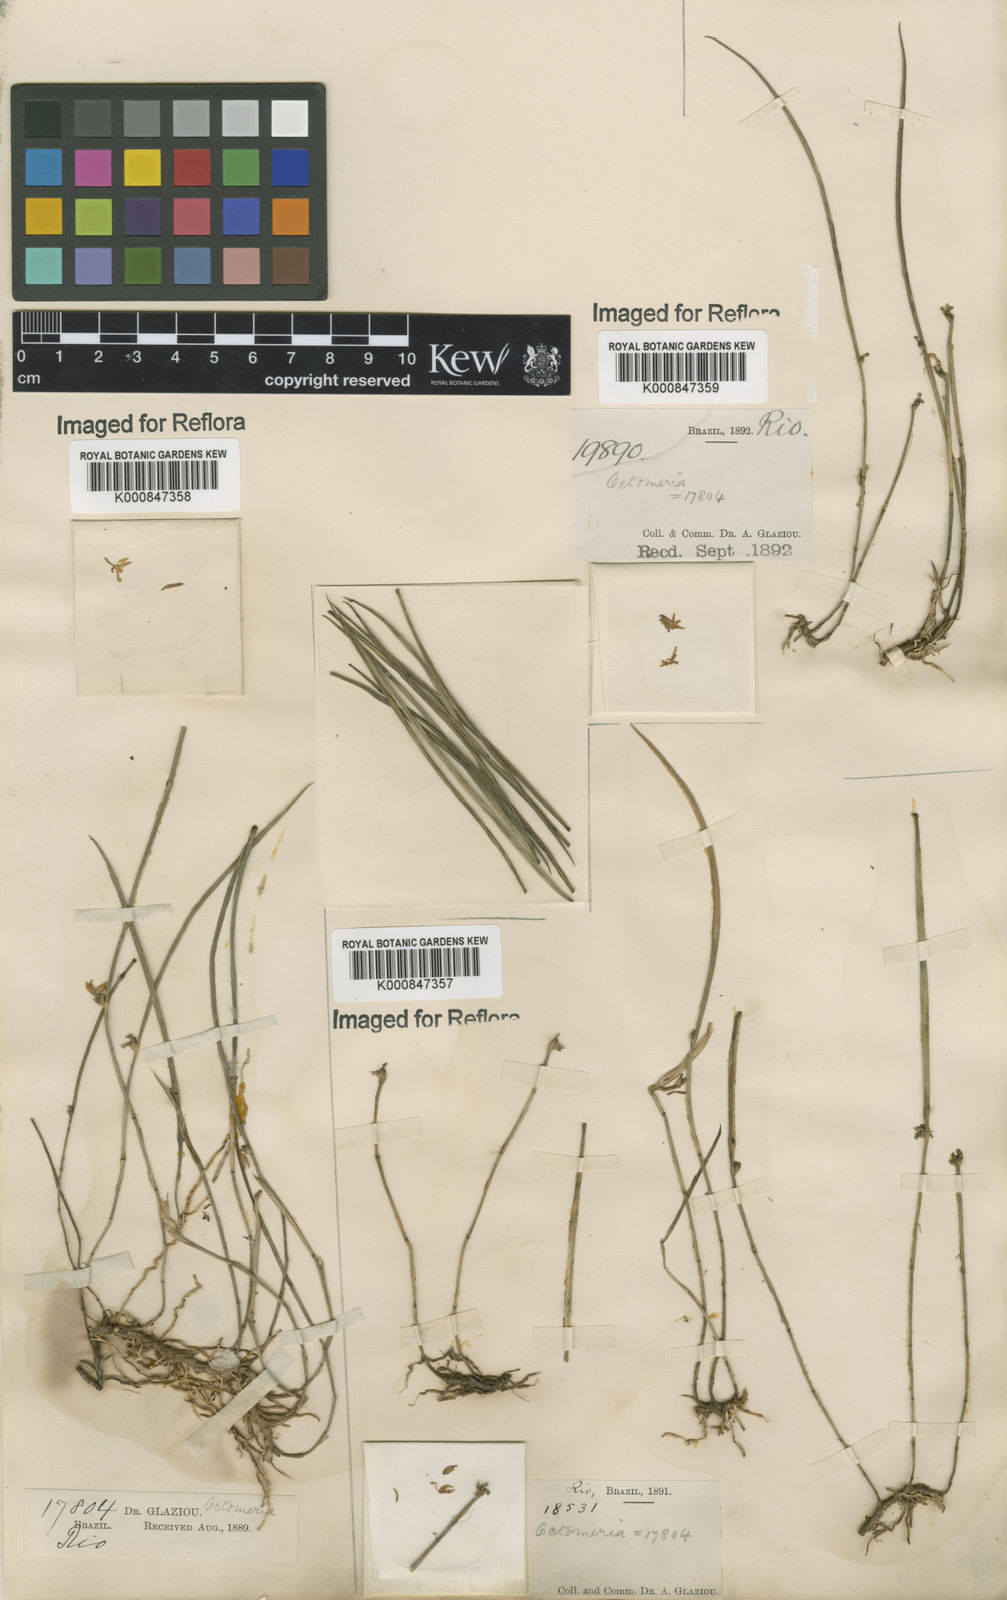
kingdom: Plantae
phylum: Tracheophyta
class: Liliopsida
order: Asparagales
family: Orchidaceae
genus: Octomeria
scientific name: Octomeria chamaeleptotes
